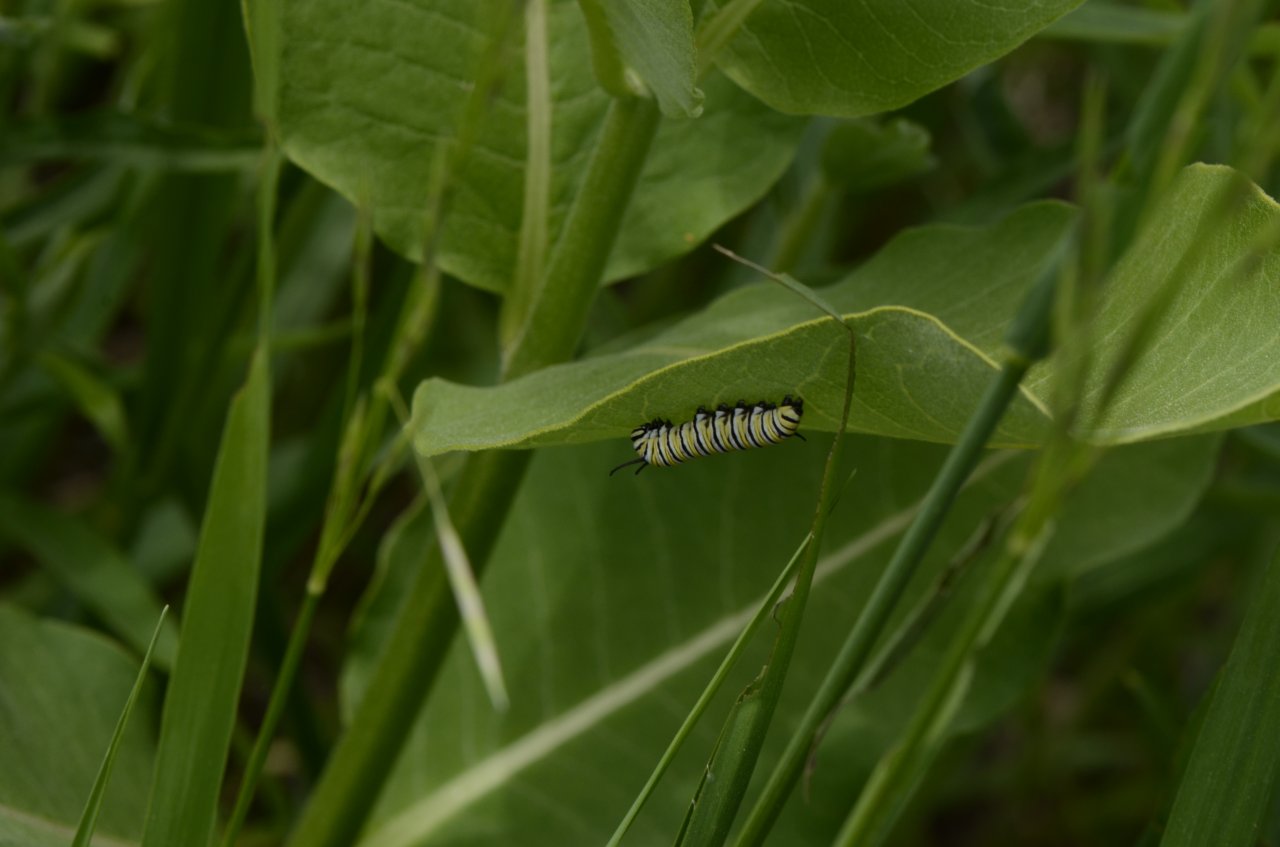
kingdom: Animalia
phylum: Arthropoda
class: Insecta
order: Lepidoptera
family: Nymphalidae
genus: Danaus
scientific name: Danaus plexippus
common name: Monarch
